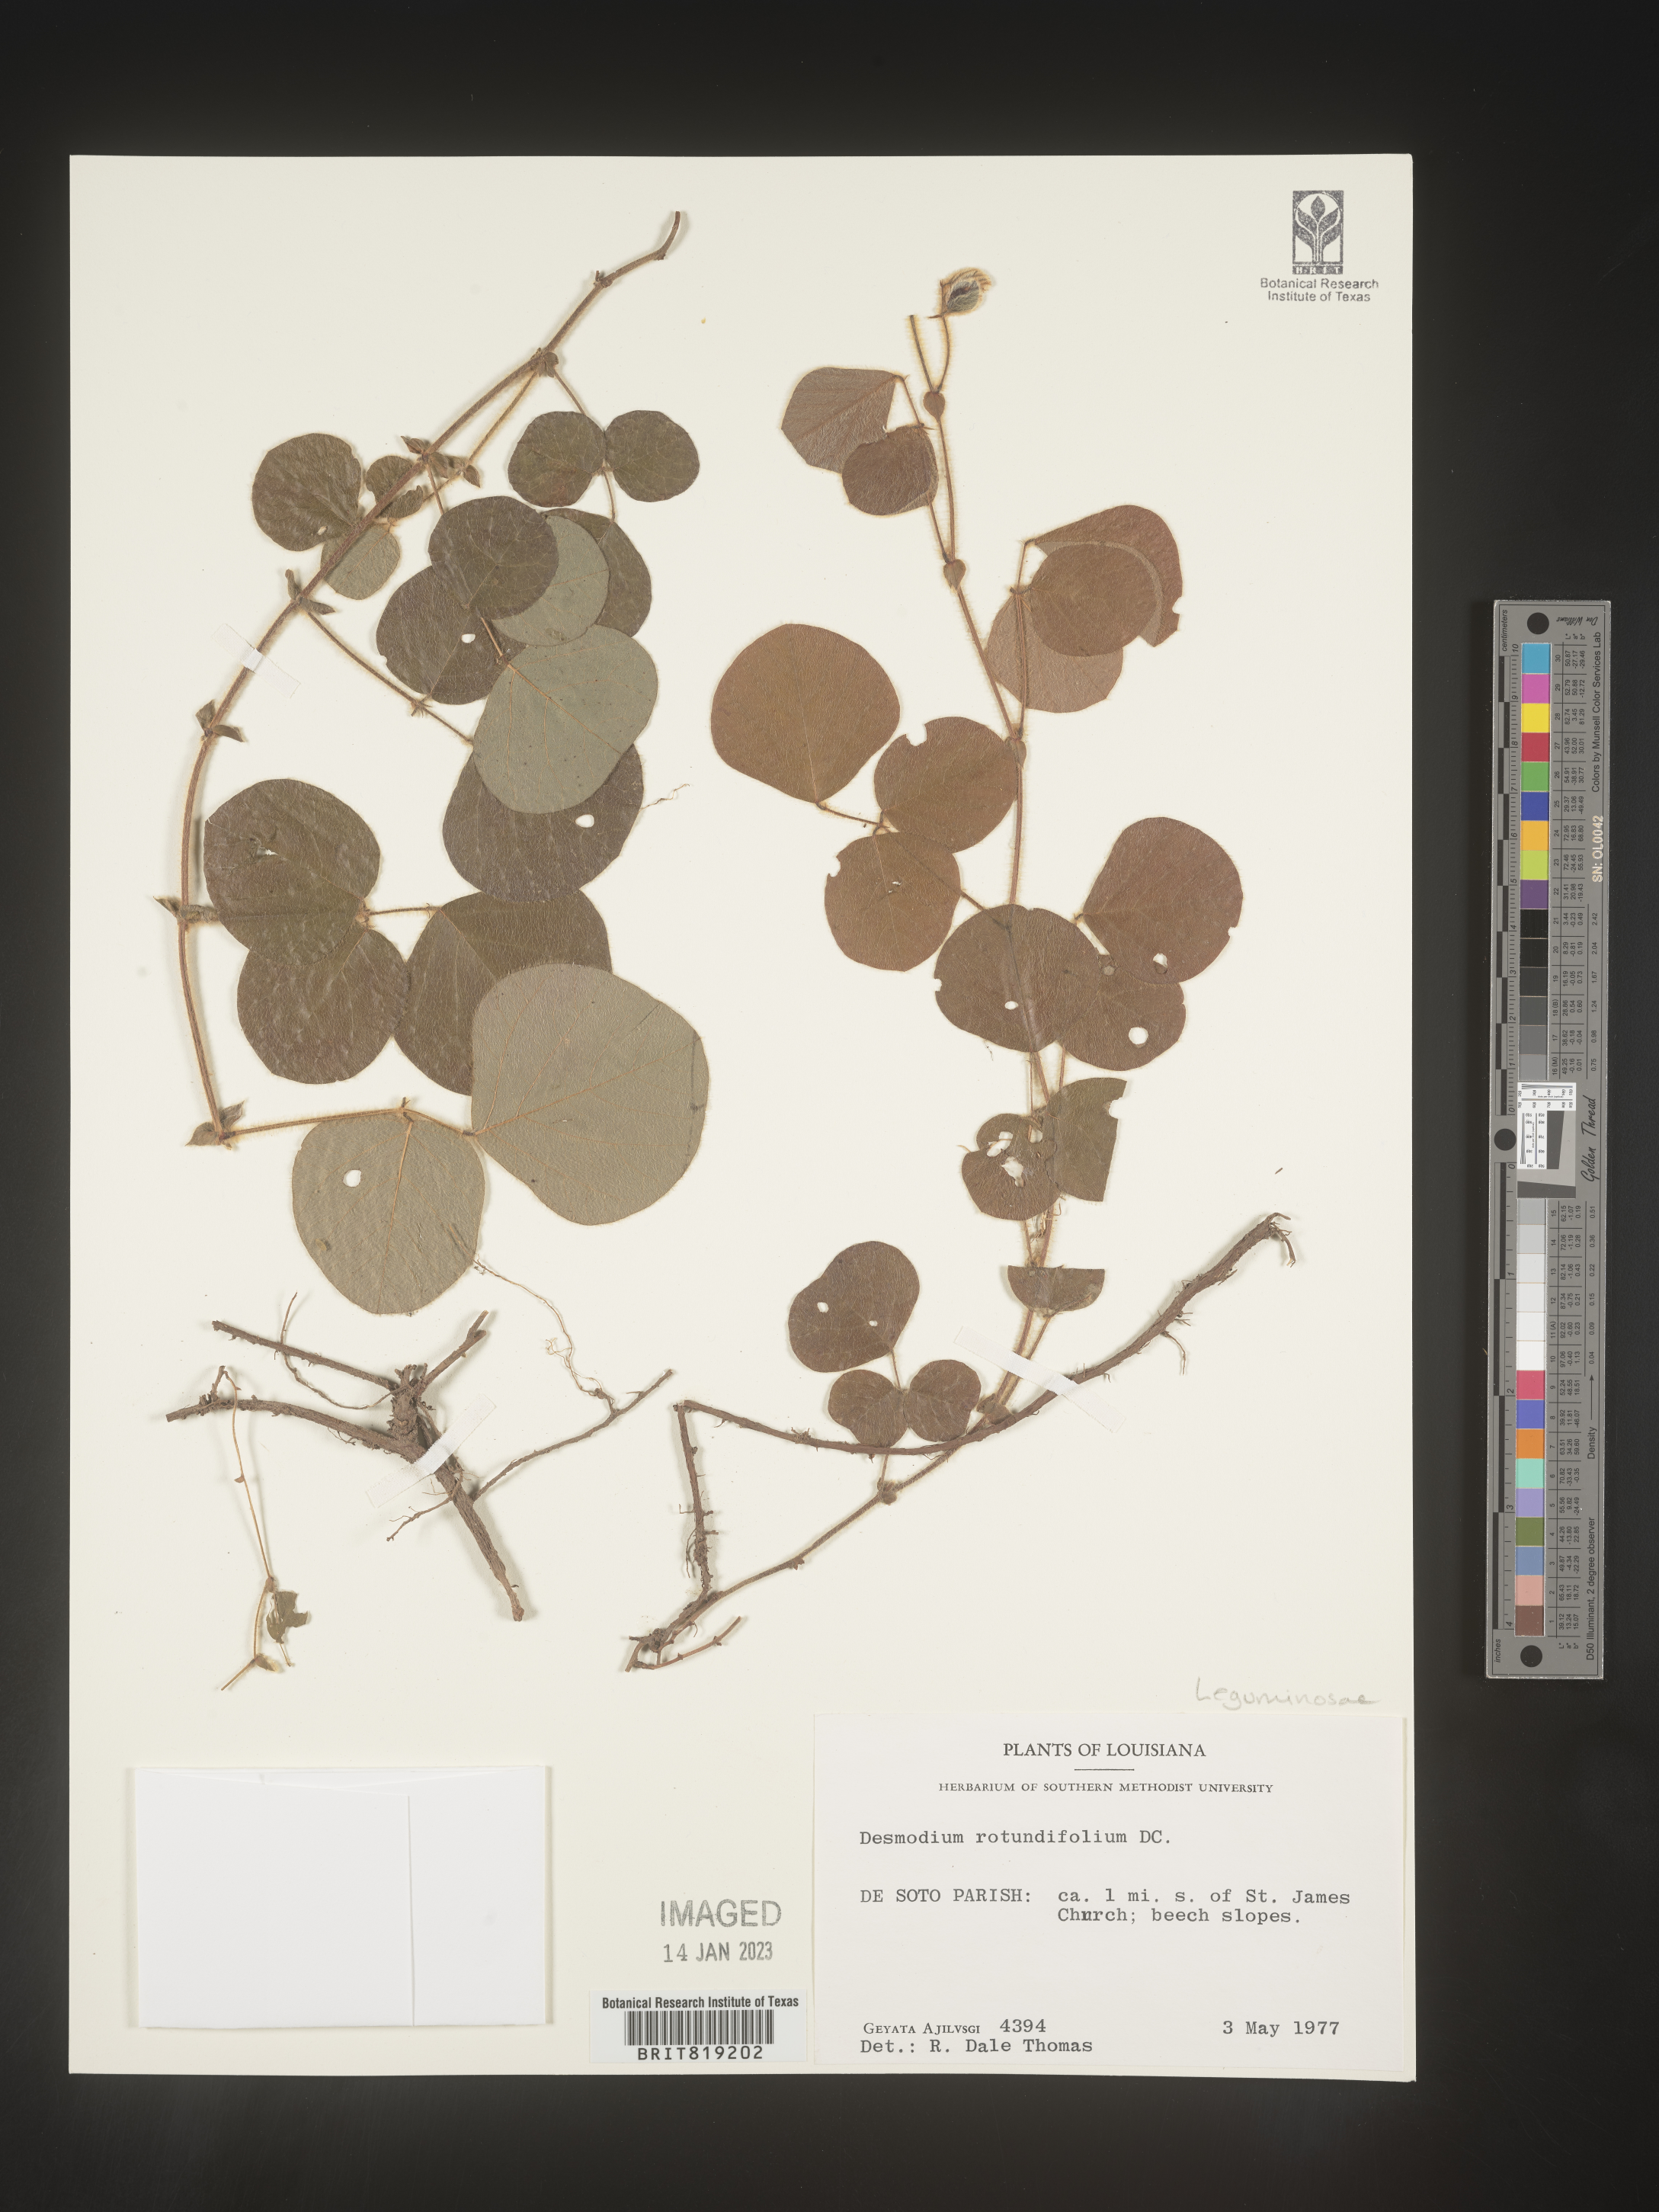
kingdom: Plantae
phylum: Tracheophyta
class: Magnoliopsida
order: Fabales
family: Fabaceae
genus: Desmodium
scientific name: Desmodium rotundifolium
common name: Dollarleaf
